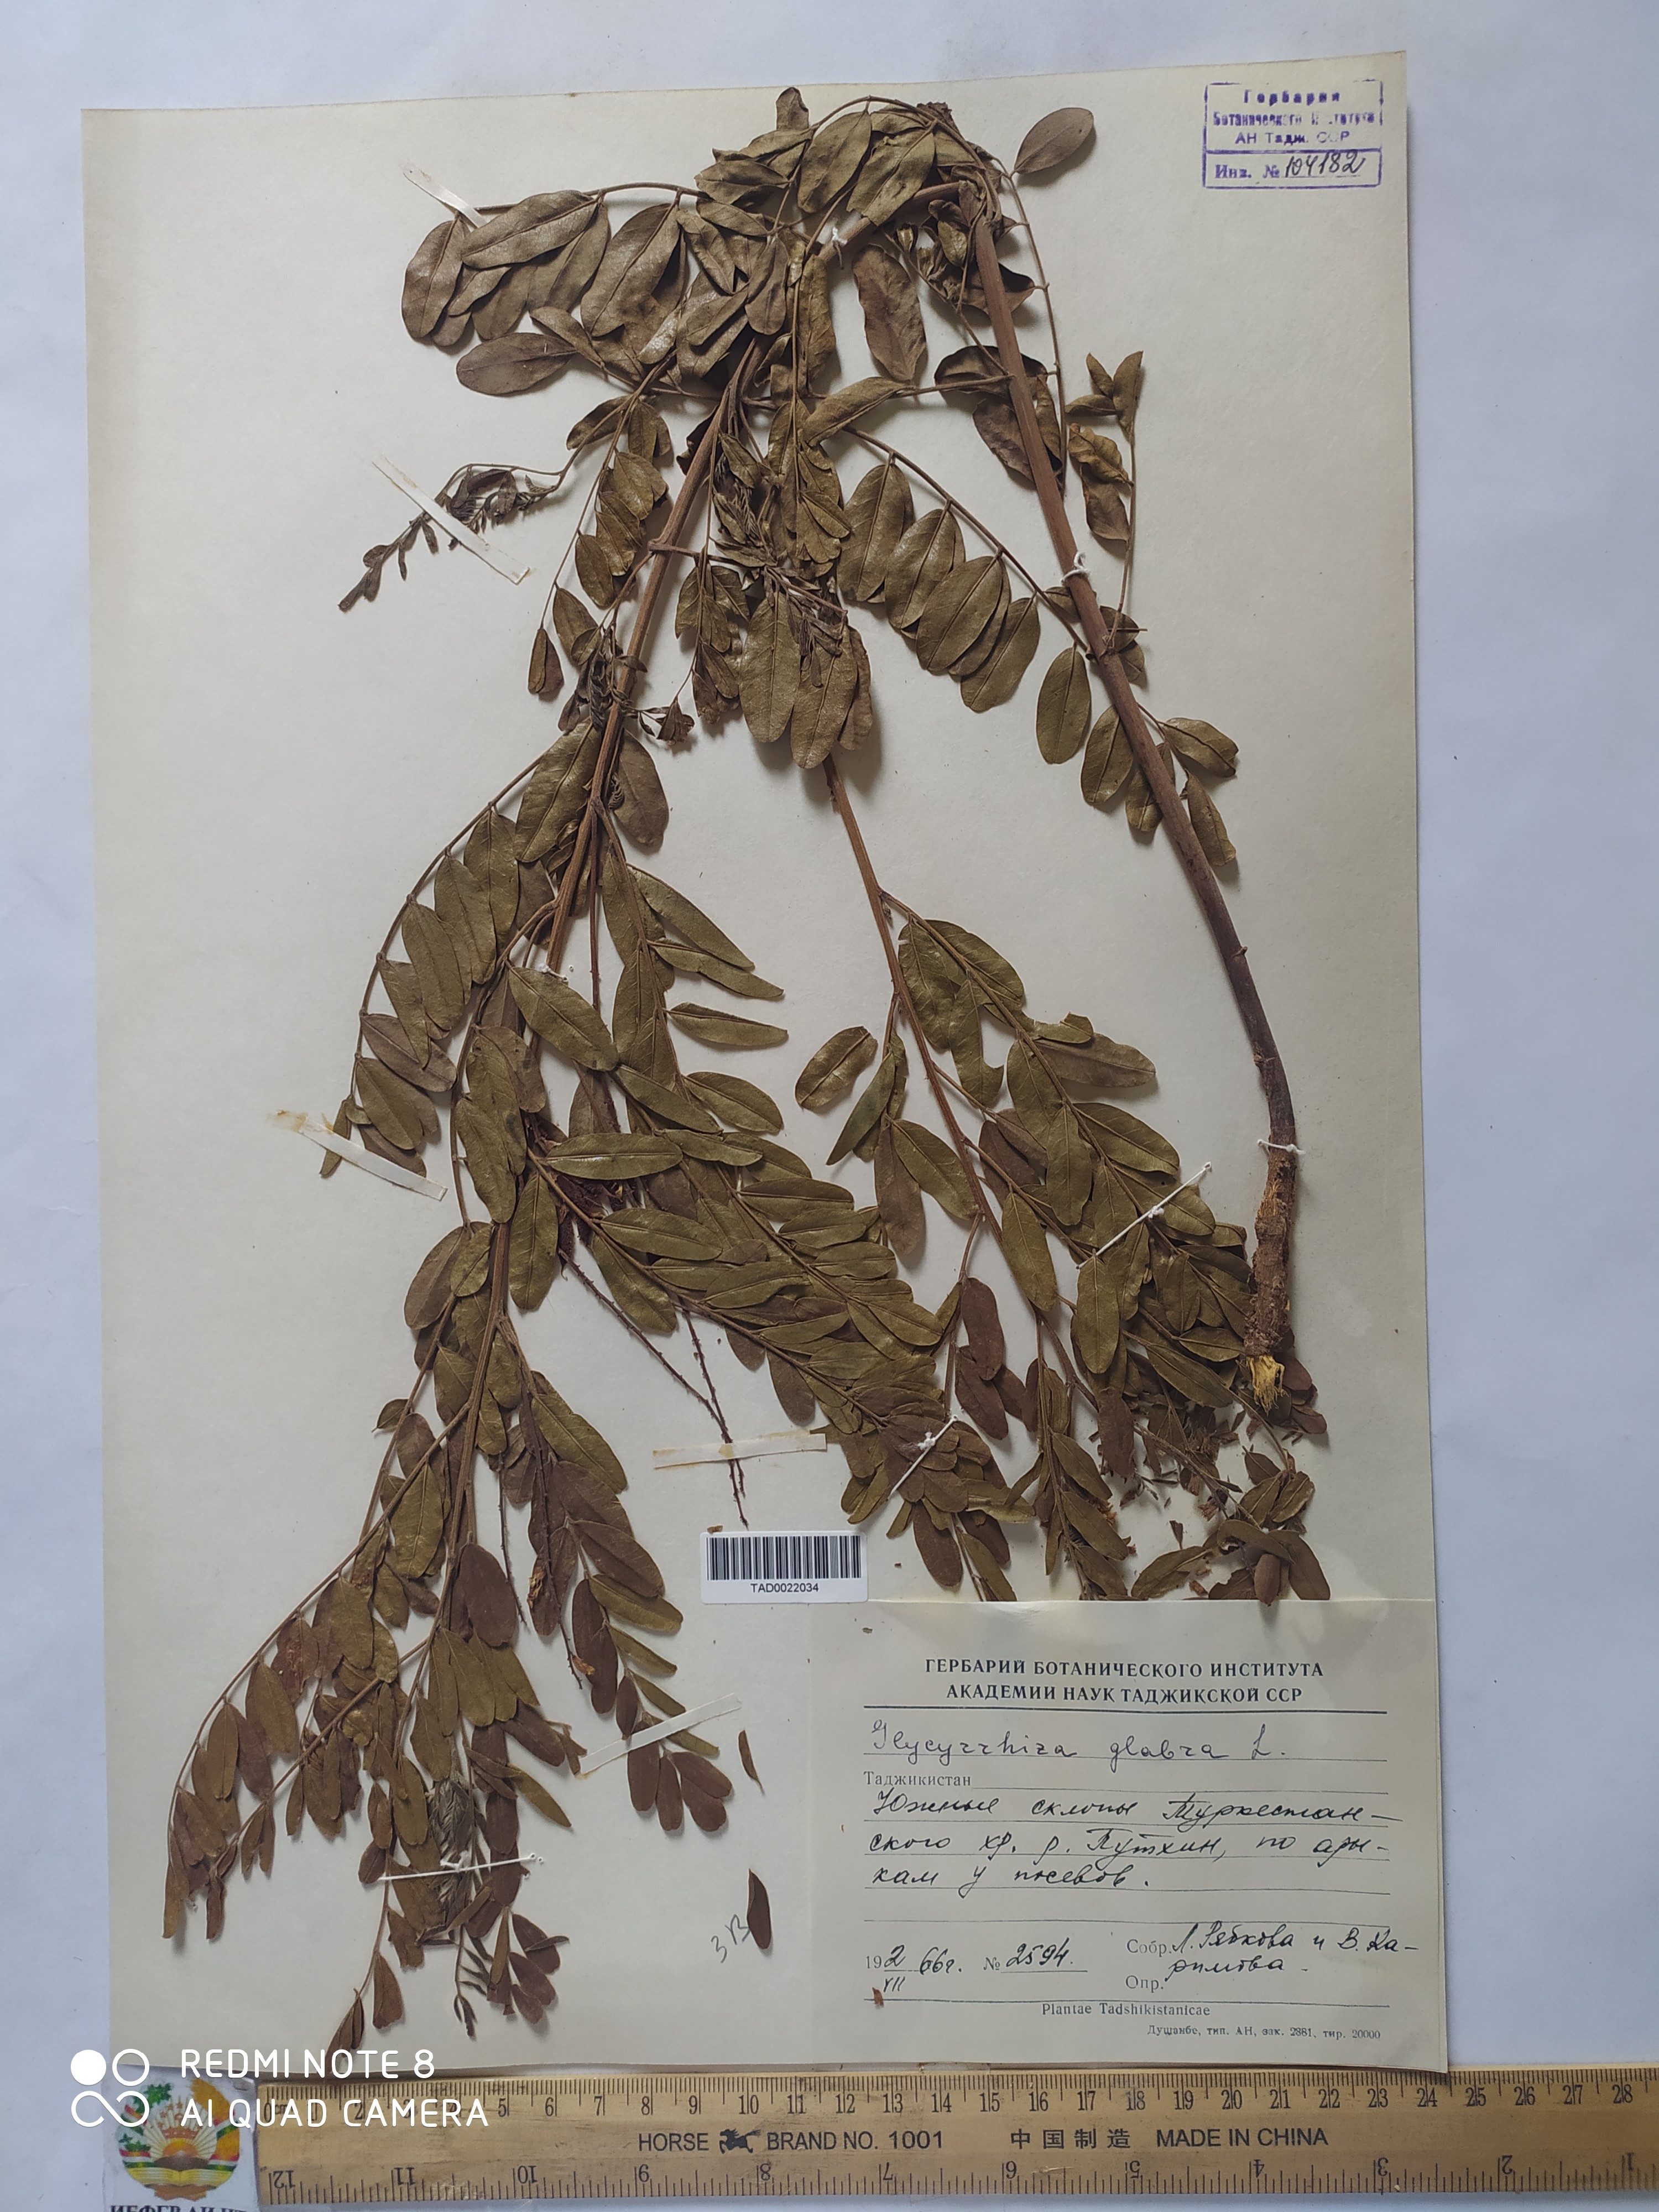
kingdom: Plantae
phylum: Tracheophyta
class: Magnoliopsida
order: Fabales
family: Fabaceae
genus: Glycyrrhiza
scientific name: Glycyrrhiza glabra
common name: Liquorice
